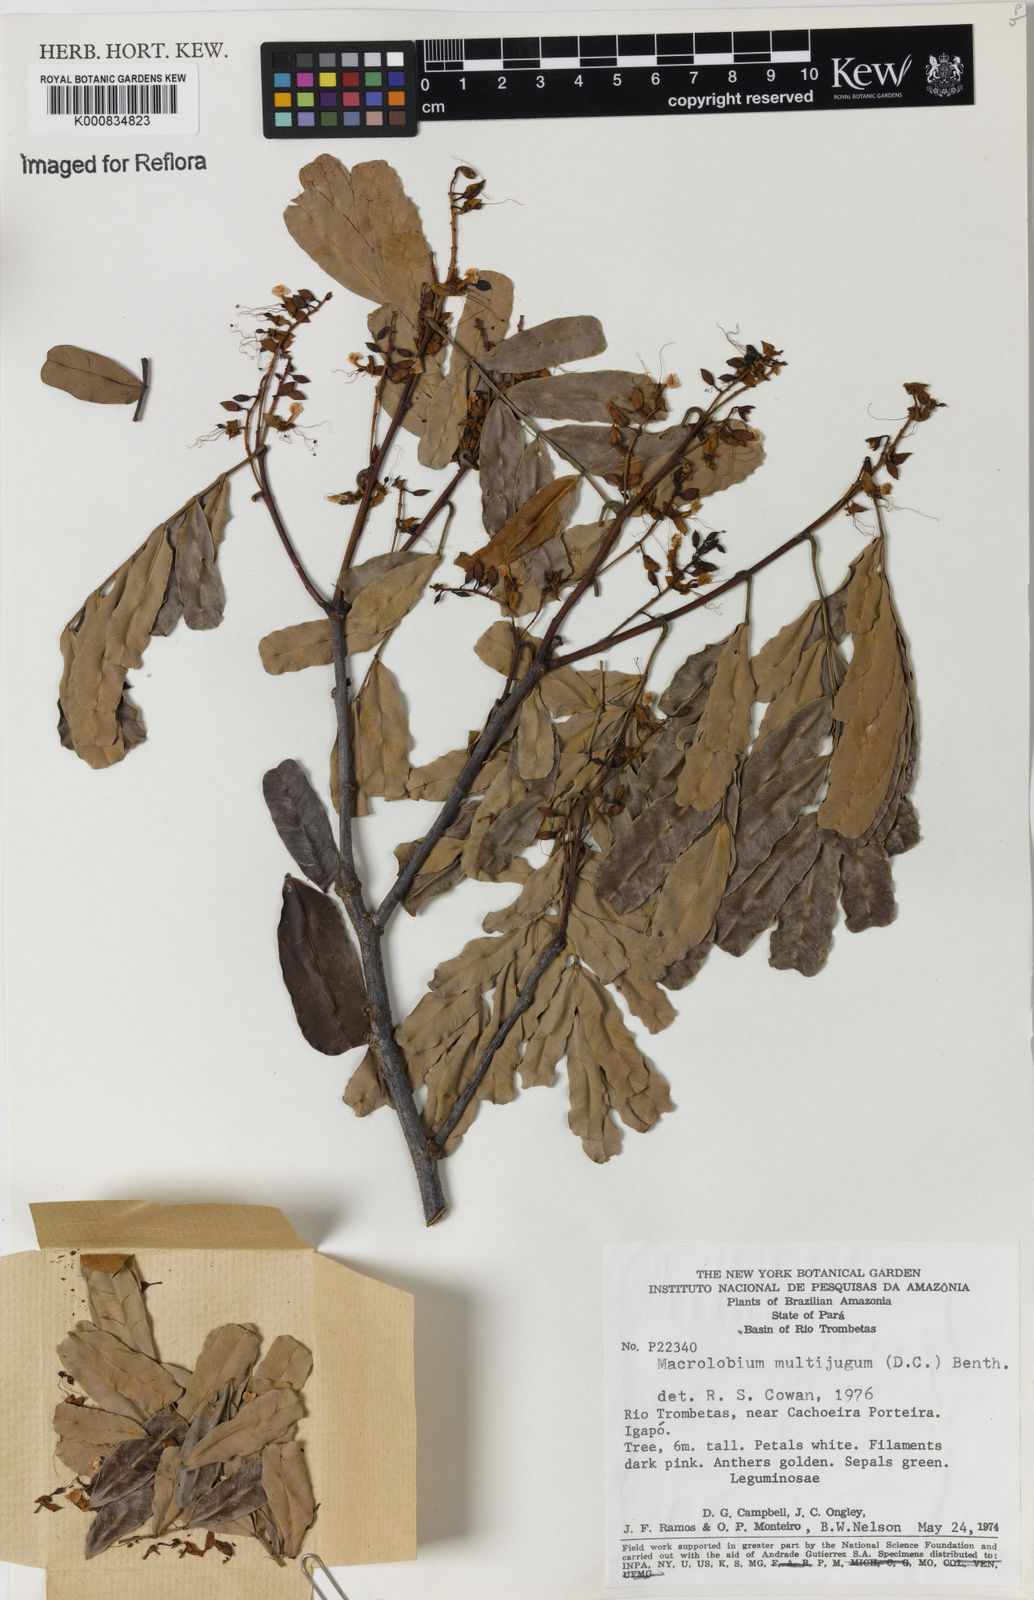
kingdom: Plantae
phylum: Tracheophyta
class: Magnoliopsida
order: Fabales
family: Fabaceae
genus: Macrolobium
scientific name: Macrolobium multijugum
